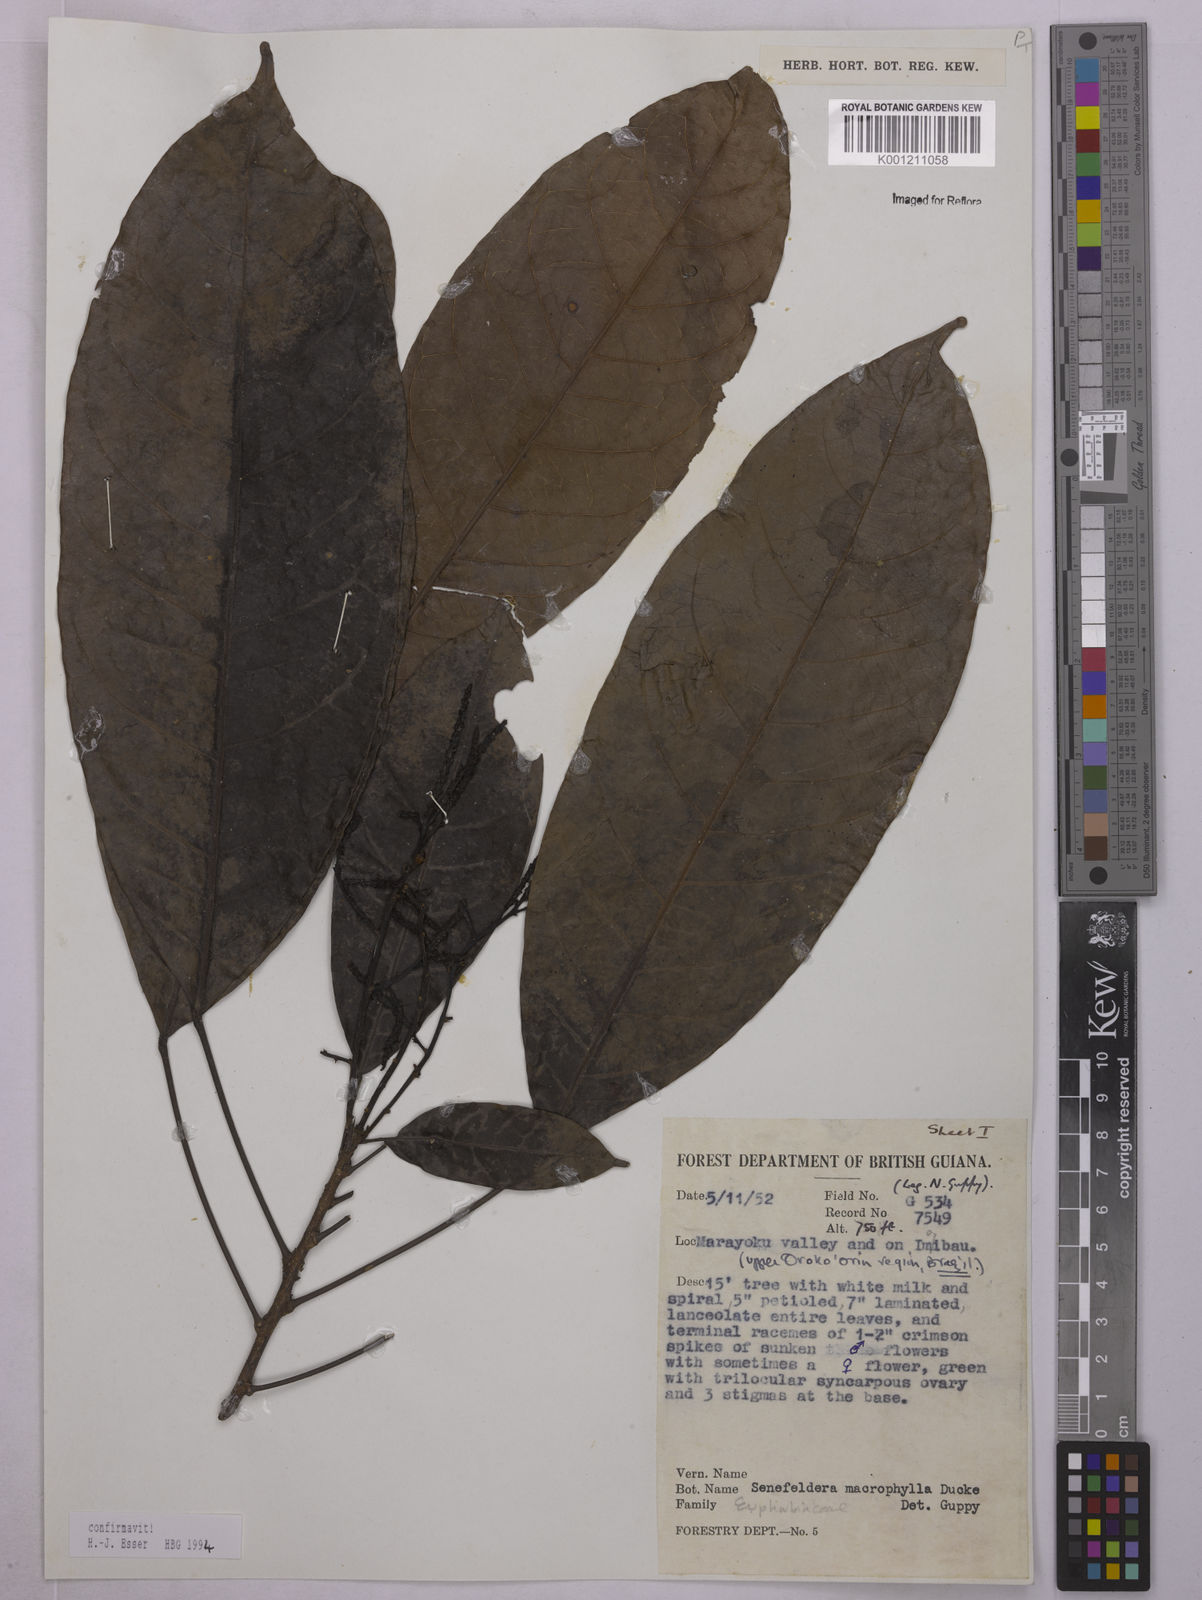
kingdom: Plantae
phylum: Tracheophyta
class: Magnoliopsida
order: Malpighiales
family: Euphorbiaceae
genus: Rhodothyrsus
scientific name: Rhodothyrsus macrophyllus
